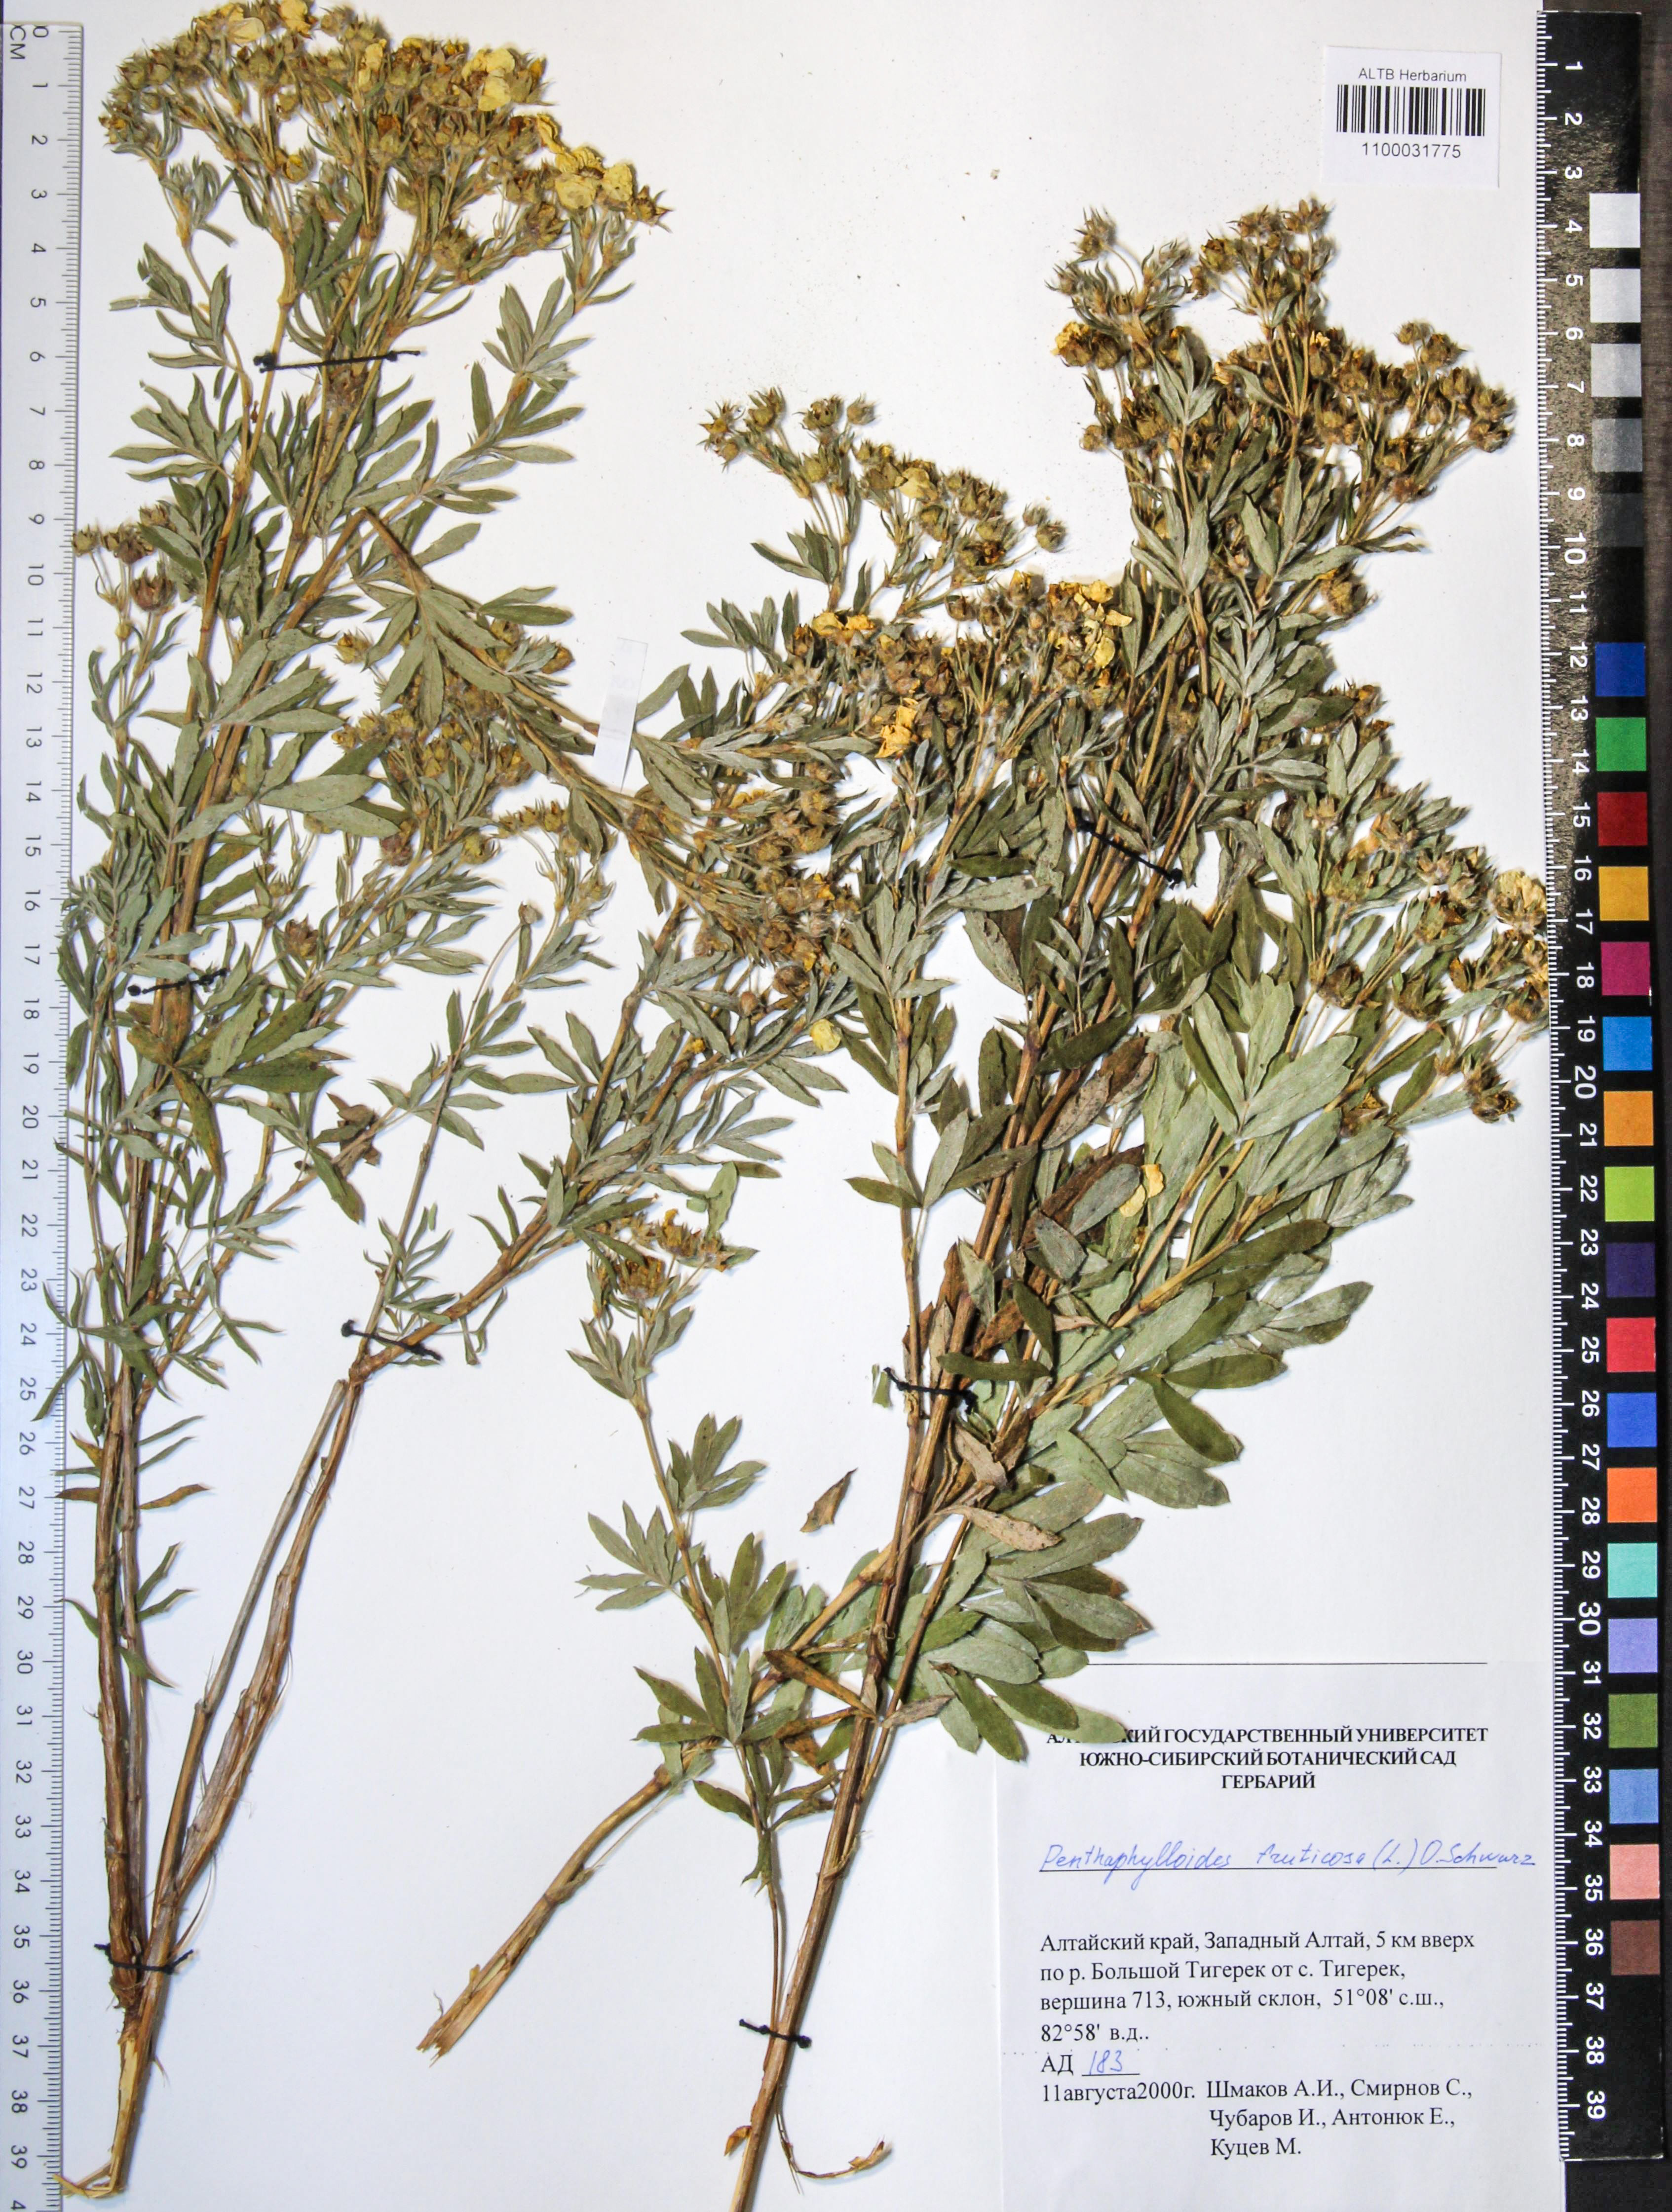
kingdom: Plantae
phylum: Tracheophyta
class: Magnoliopsida
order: Rosales
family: Rosaceae
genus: Dasiphora
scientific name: Dasiphora fruticosa
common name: Shrubby cinquefoil
